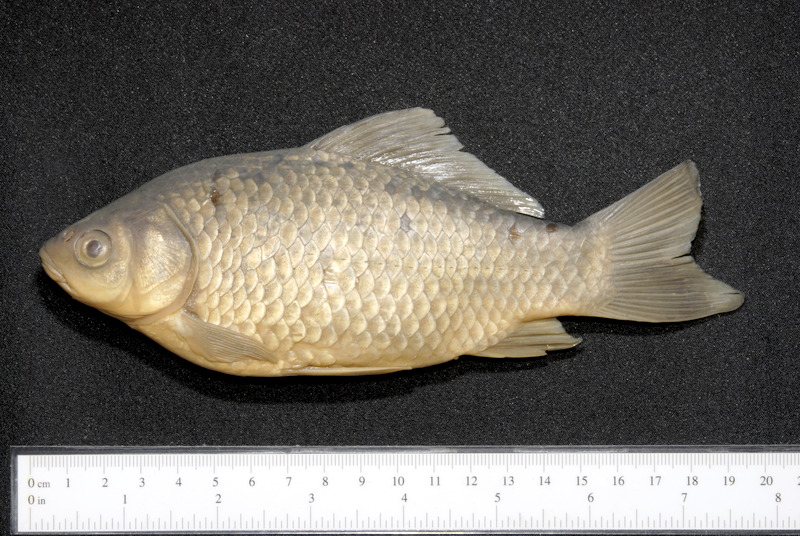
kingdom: Animalia
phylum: Chordata
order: Cypriniformes
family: Cyprinidae
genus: Carassius
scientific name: Carassius gibelio
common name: Prussian carp
